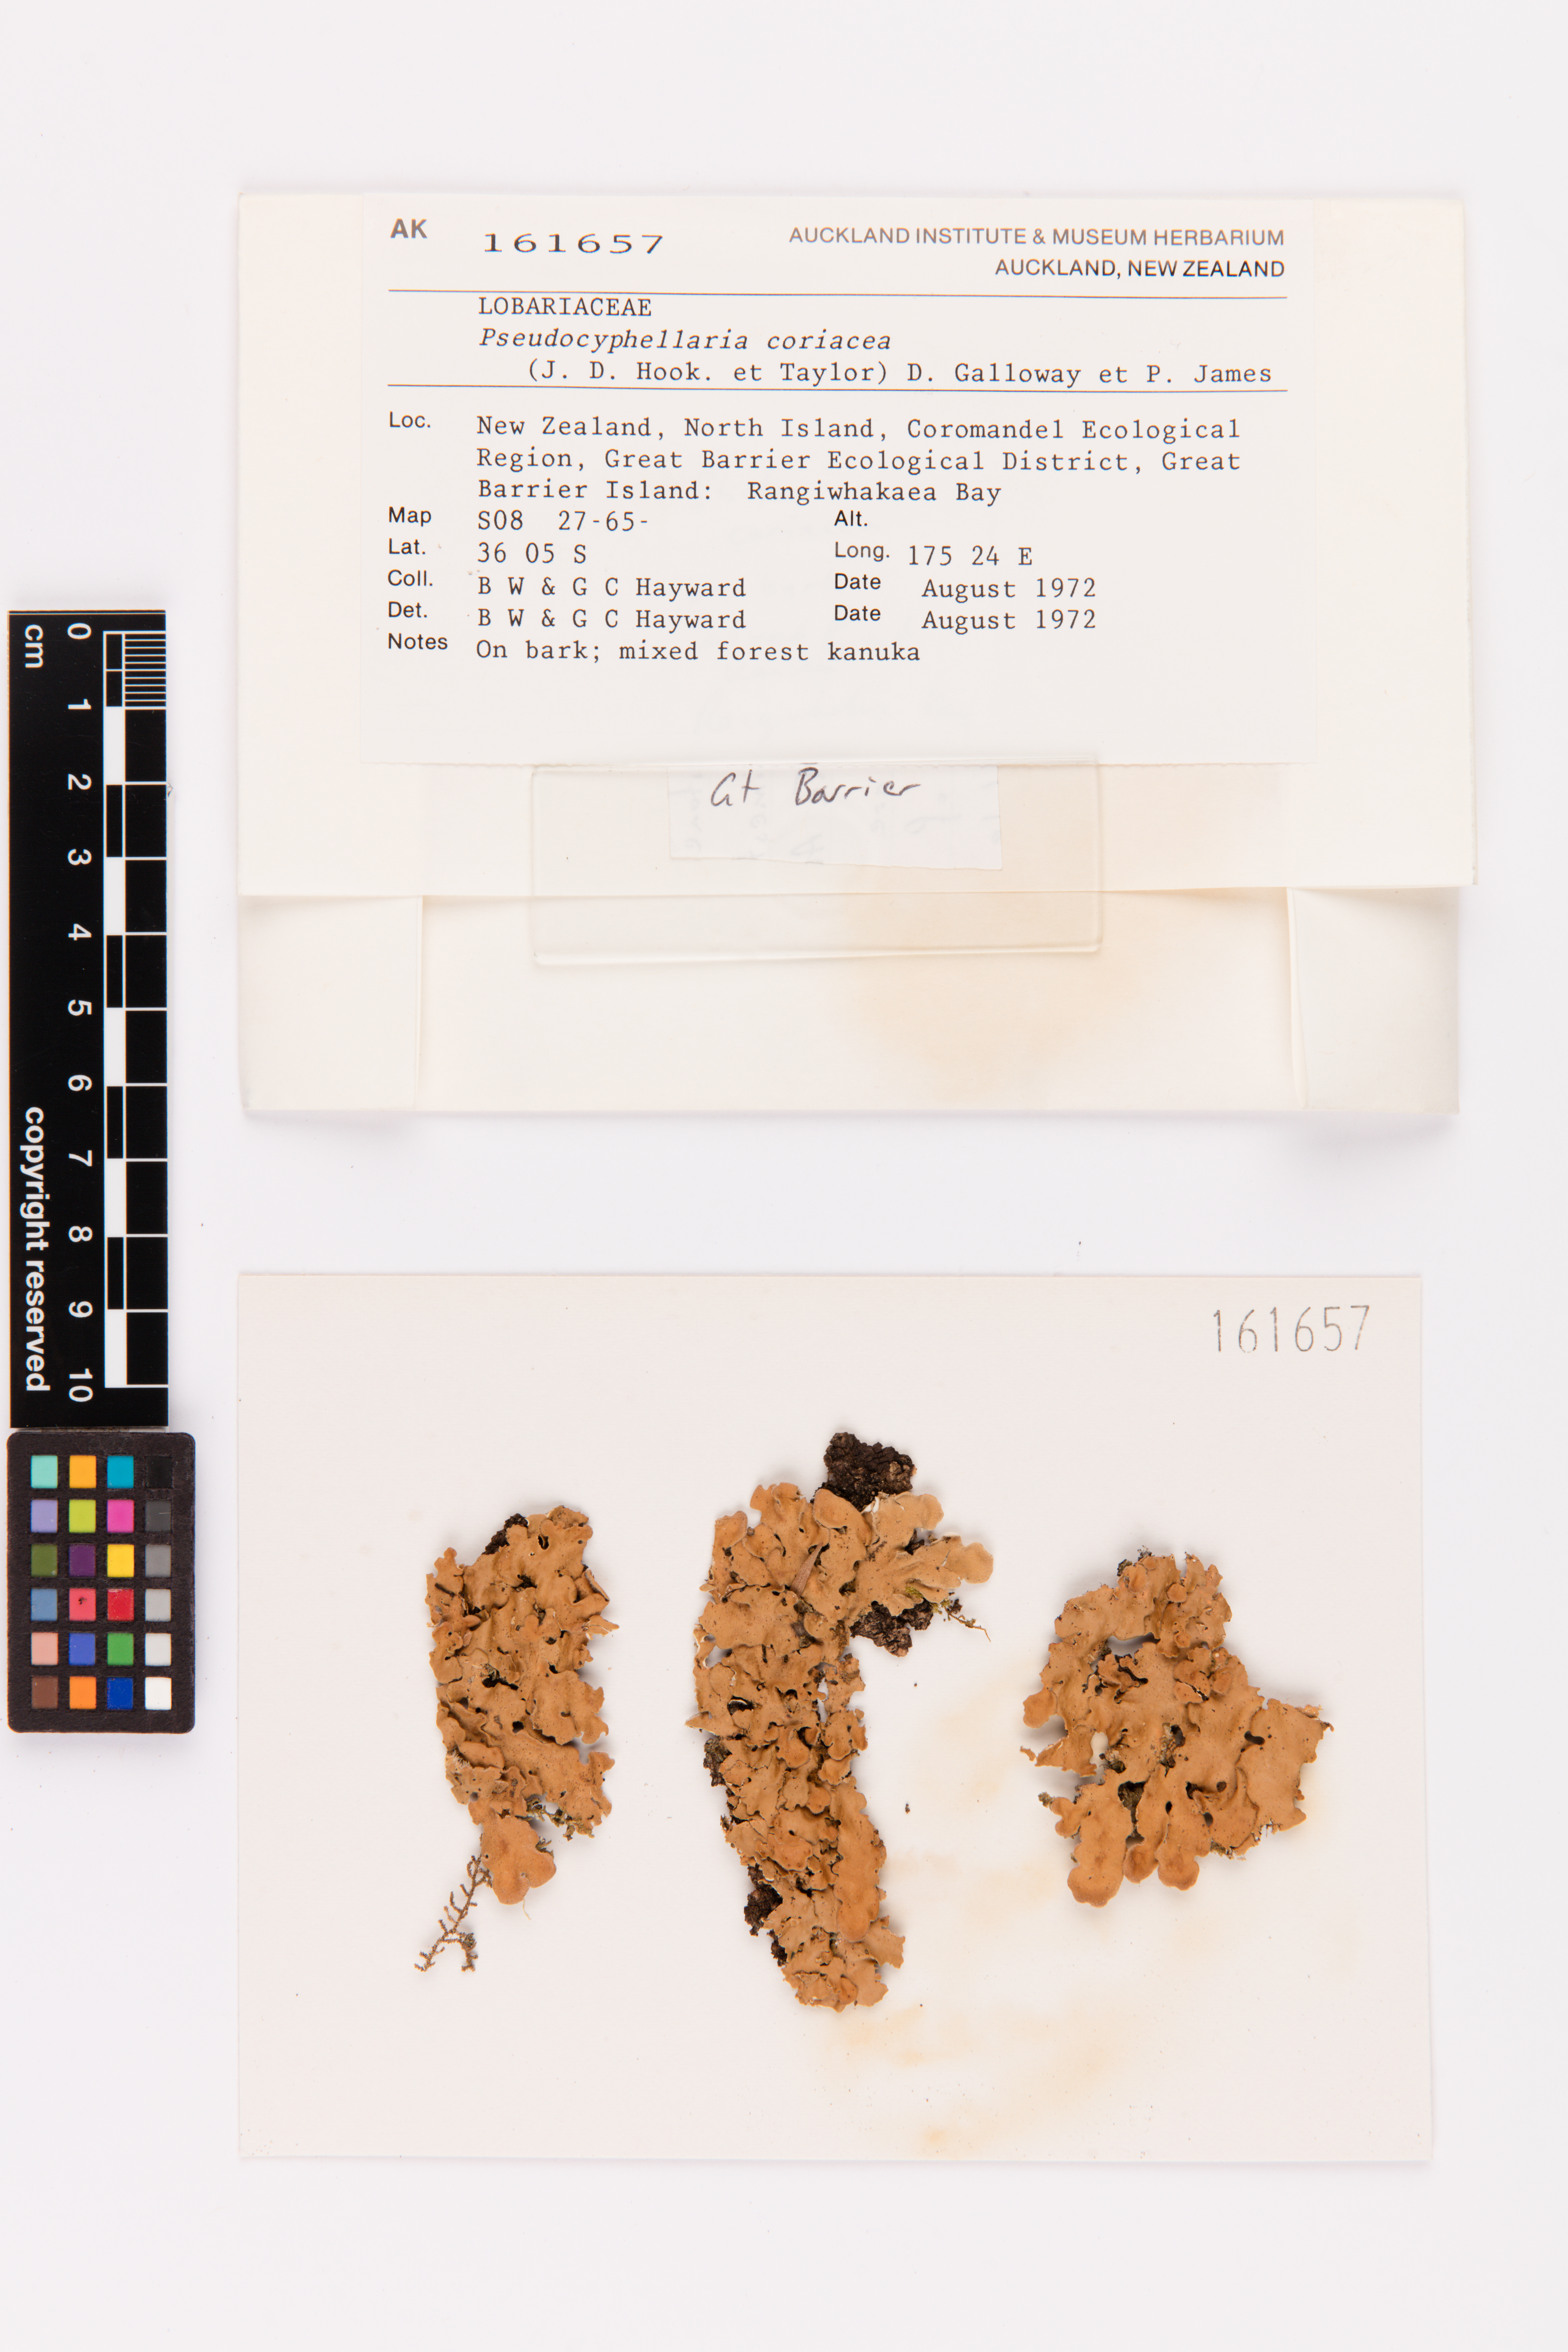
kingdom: Fungi
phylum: Ascomycota
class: Lecanoromycetes
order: Peltigerales
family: Lobariaceae
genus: Pseudocyphellaria
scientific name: Pseudocyphellaria coriacea
